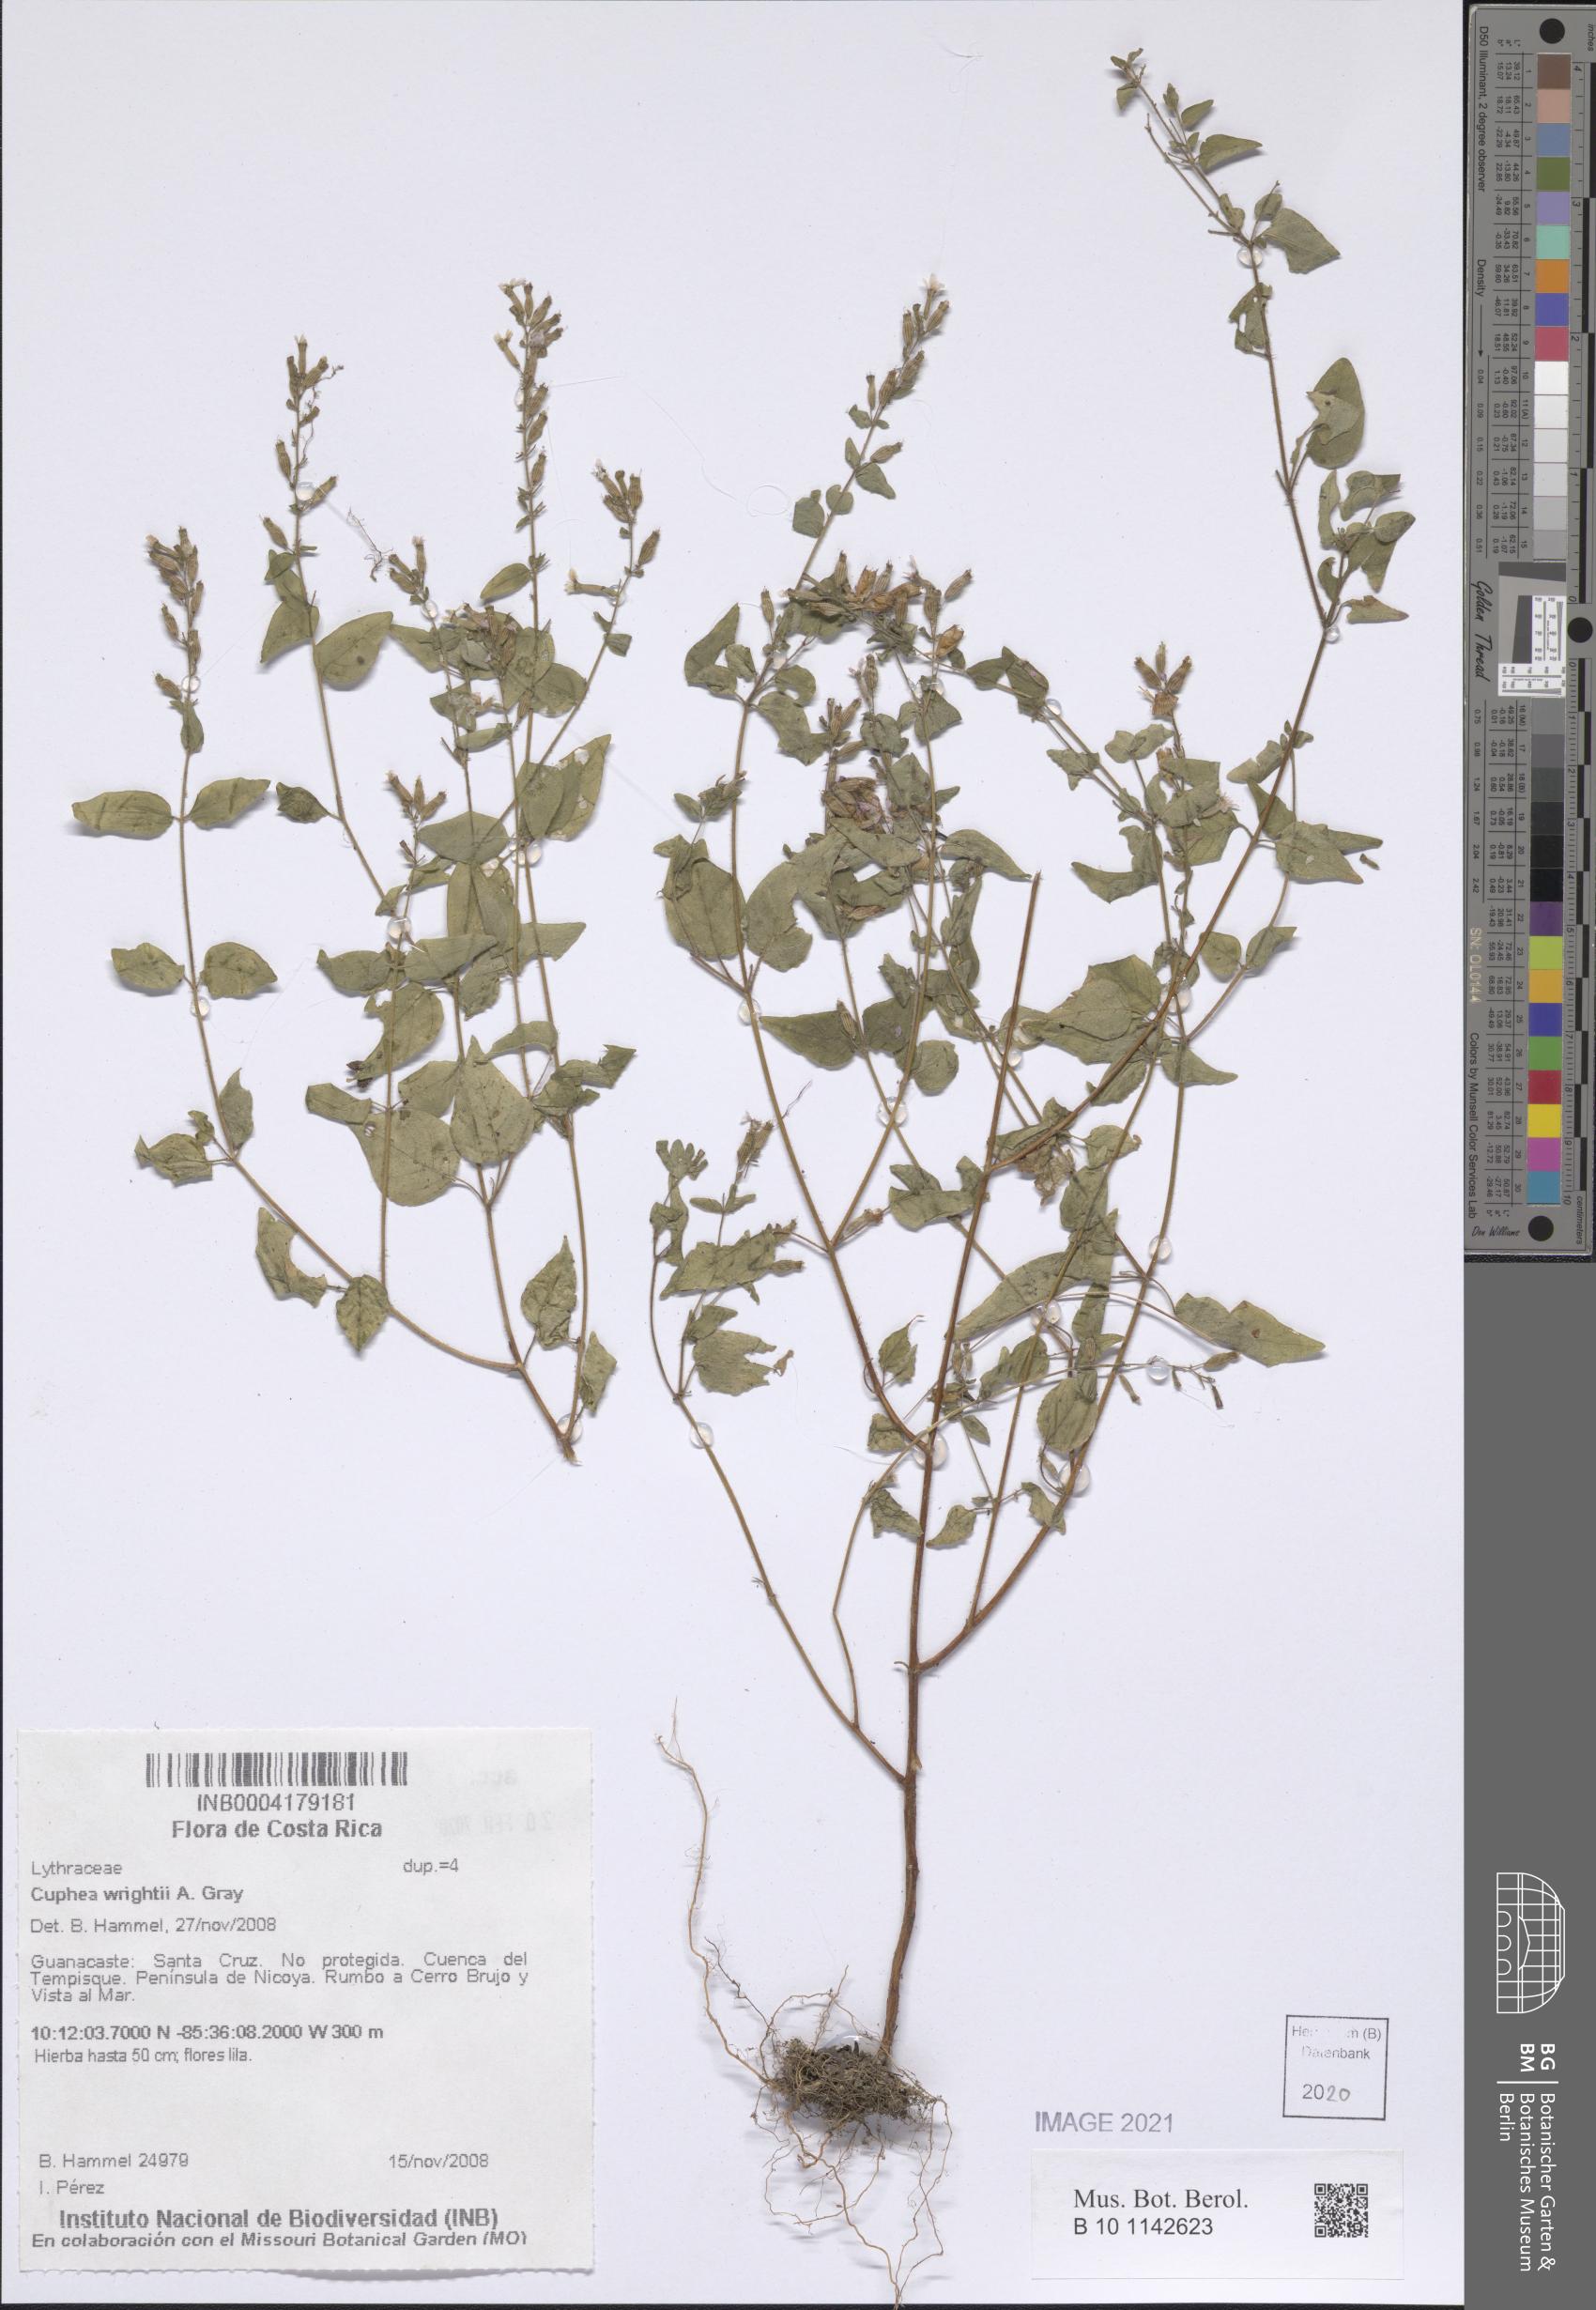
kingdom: Plantae
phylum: Tracheophyta
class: Magnoliopsida
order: Myrtales
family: Lythraceae
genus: Cuphea
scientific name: Cuphea wrightii
